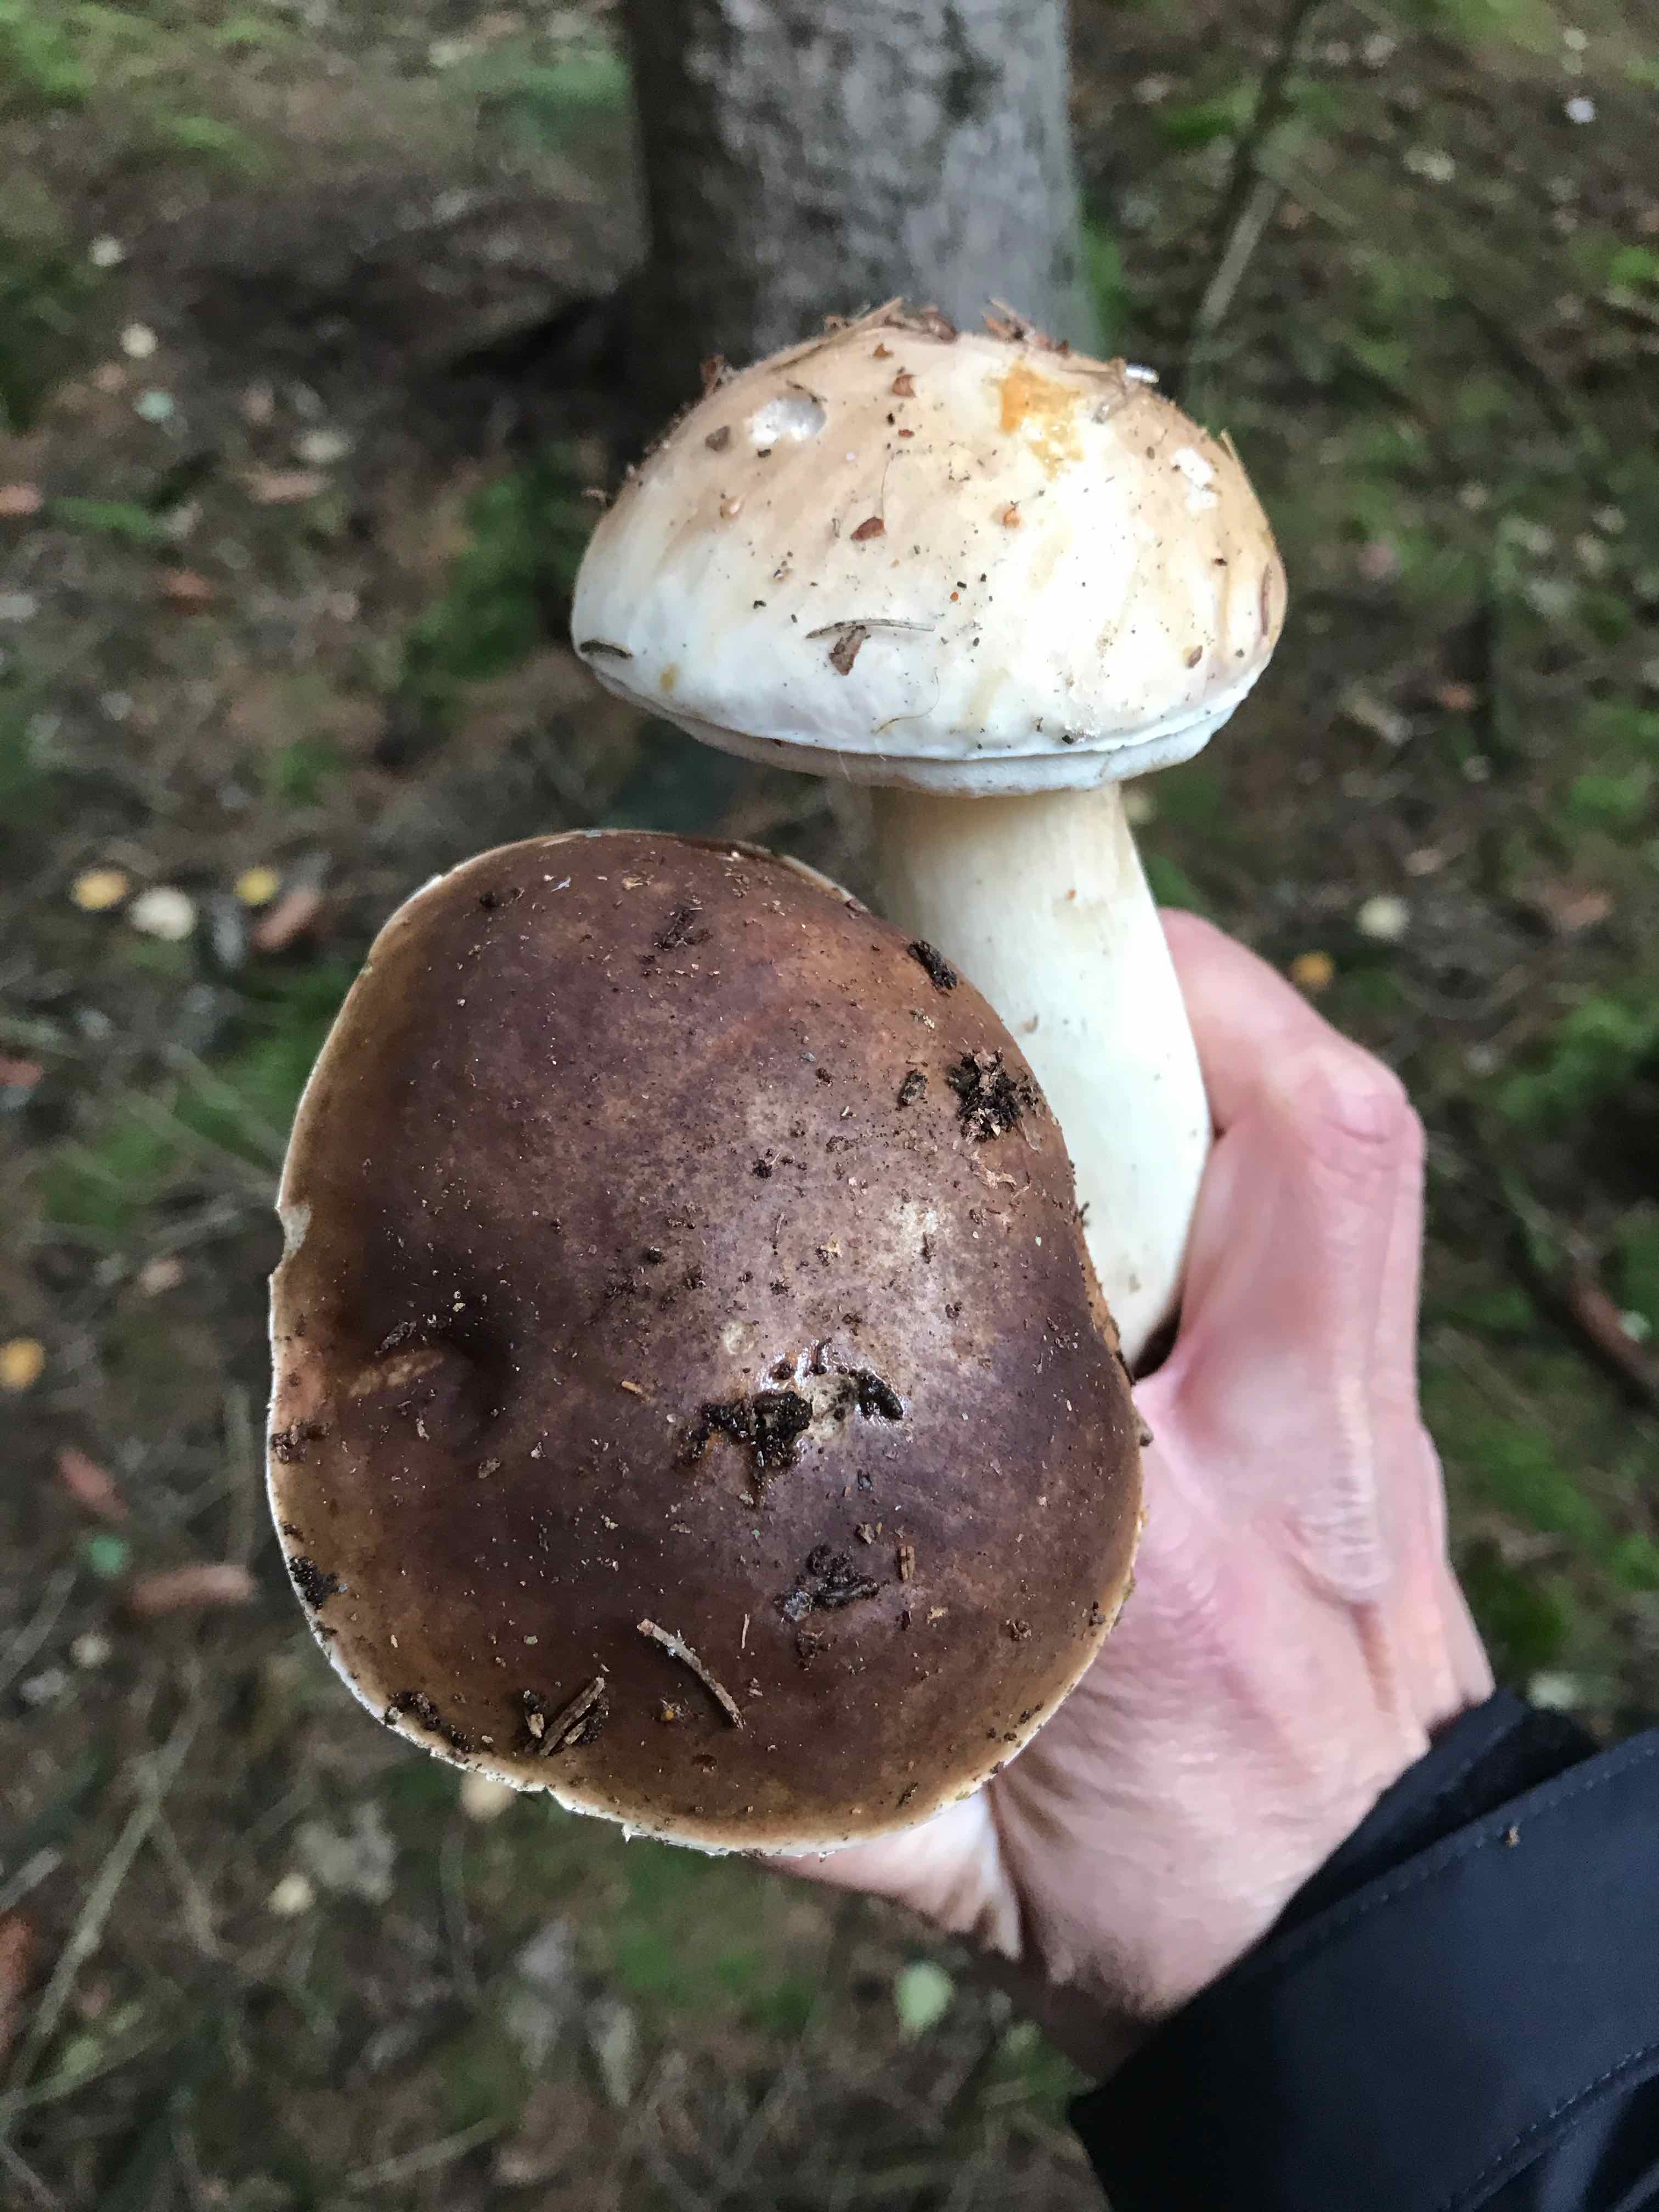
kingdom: Fungi
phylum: Basidiomycota
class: Agaricomycetes
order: Boletales
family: Boletaceae
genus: Boletus
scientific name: Boletus edulis
